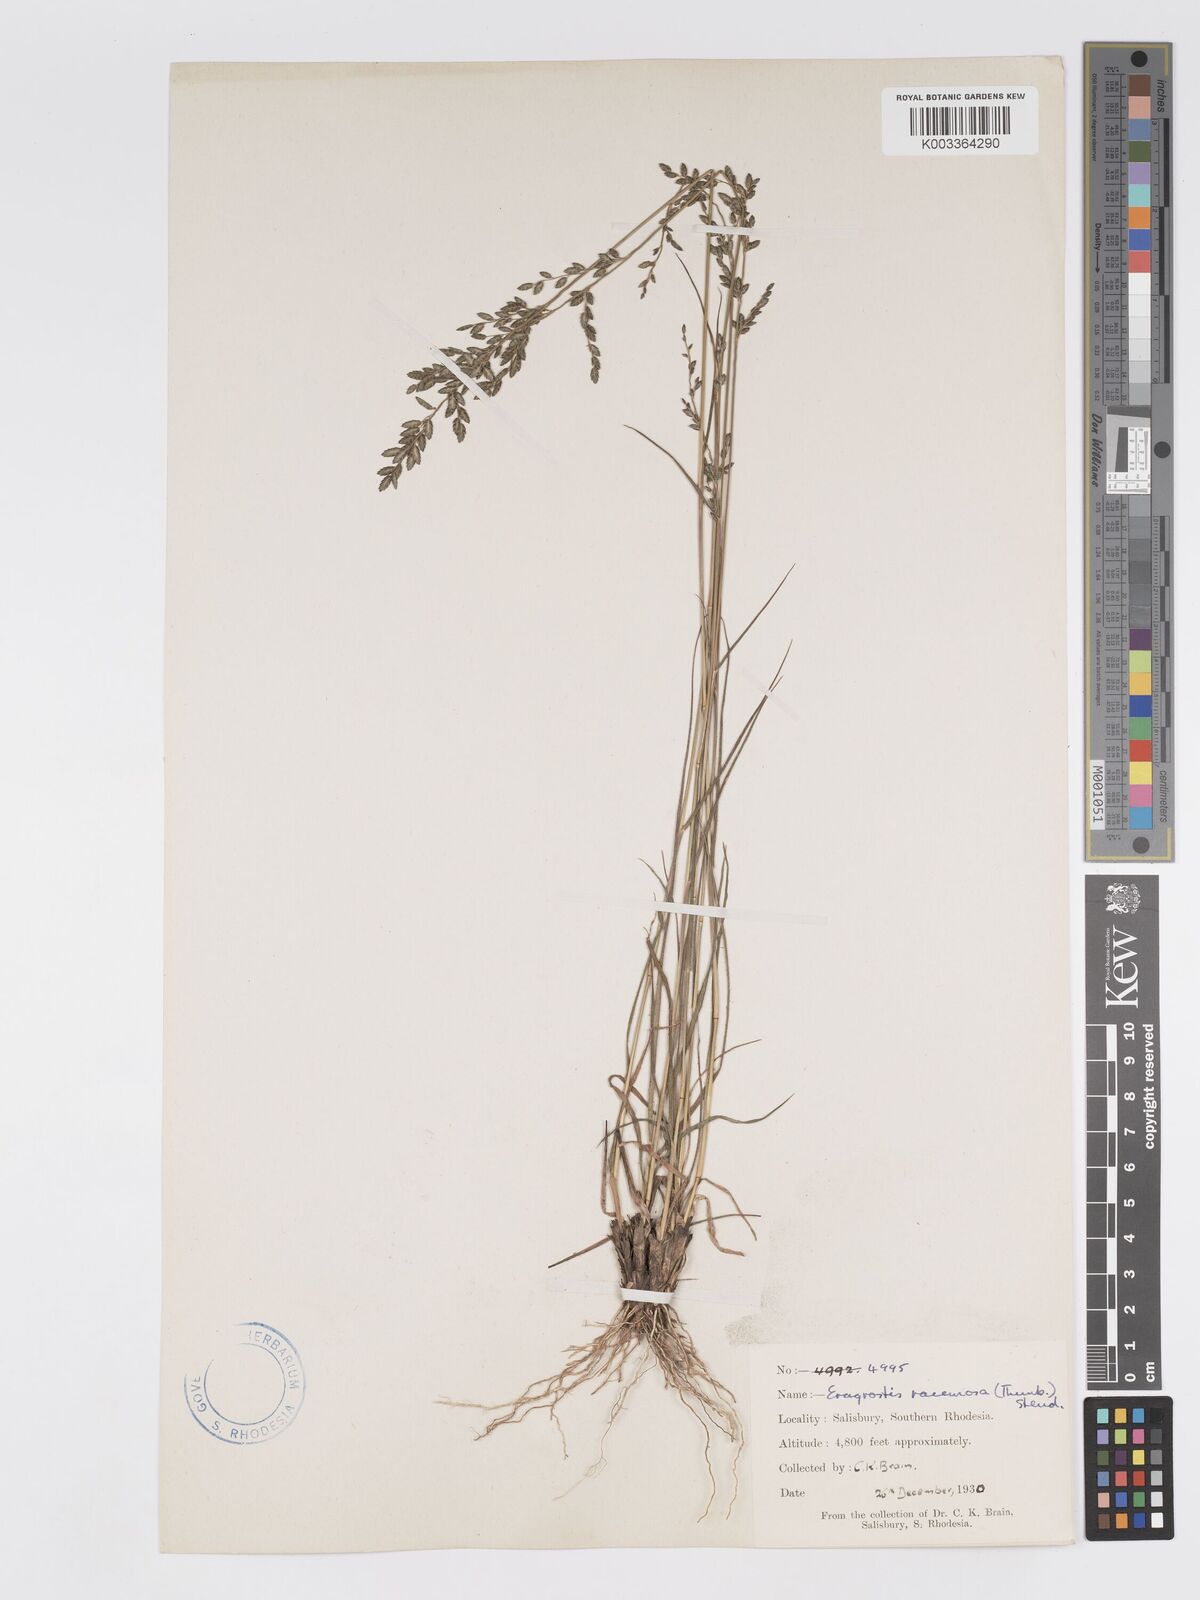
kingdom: Plantae
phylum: Tracheophyta
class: Liliopsida
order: Poales
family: Poaceae
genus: Eragrostis
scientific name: Eragrostis racemosa
